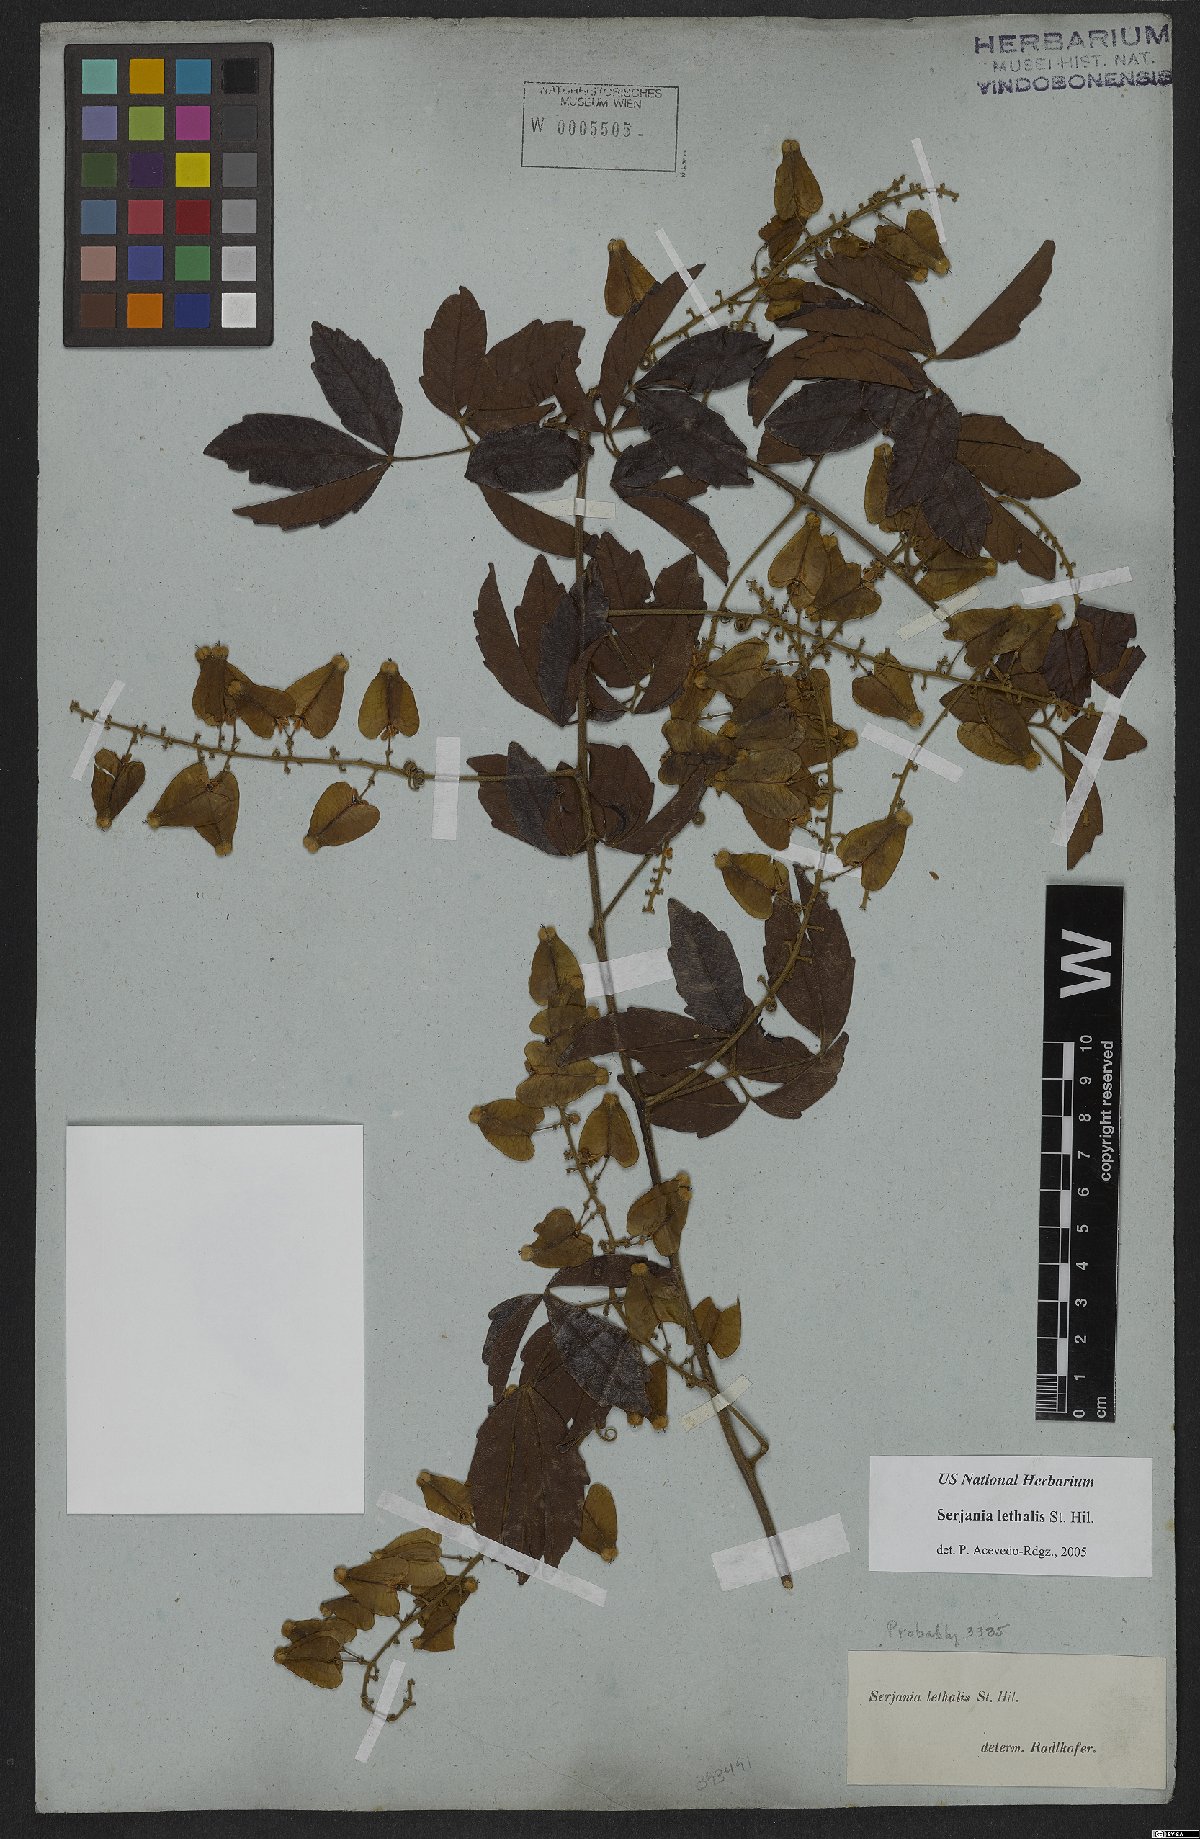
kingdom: Plantae
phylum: Tracheophyta
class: Magnoliopsida
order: Sapindales
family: Sapindaceae
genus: Serjania
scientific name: Serjania lethalis
